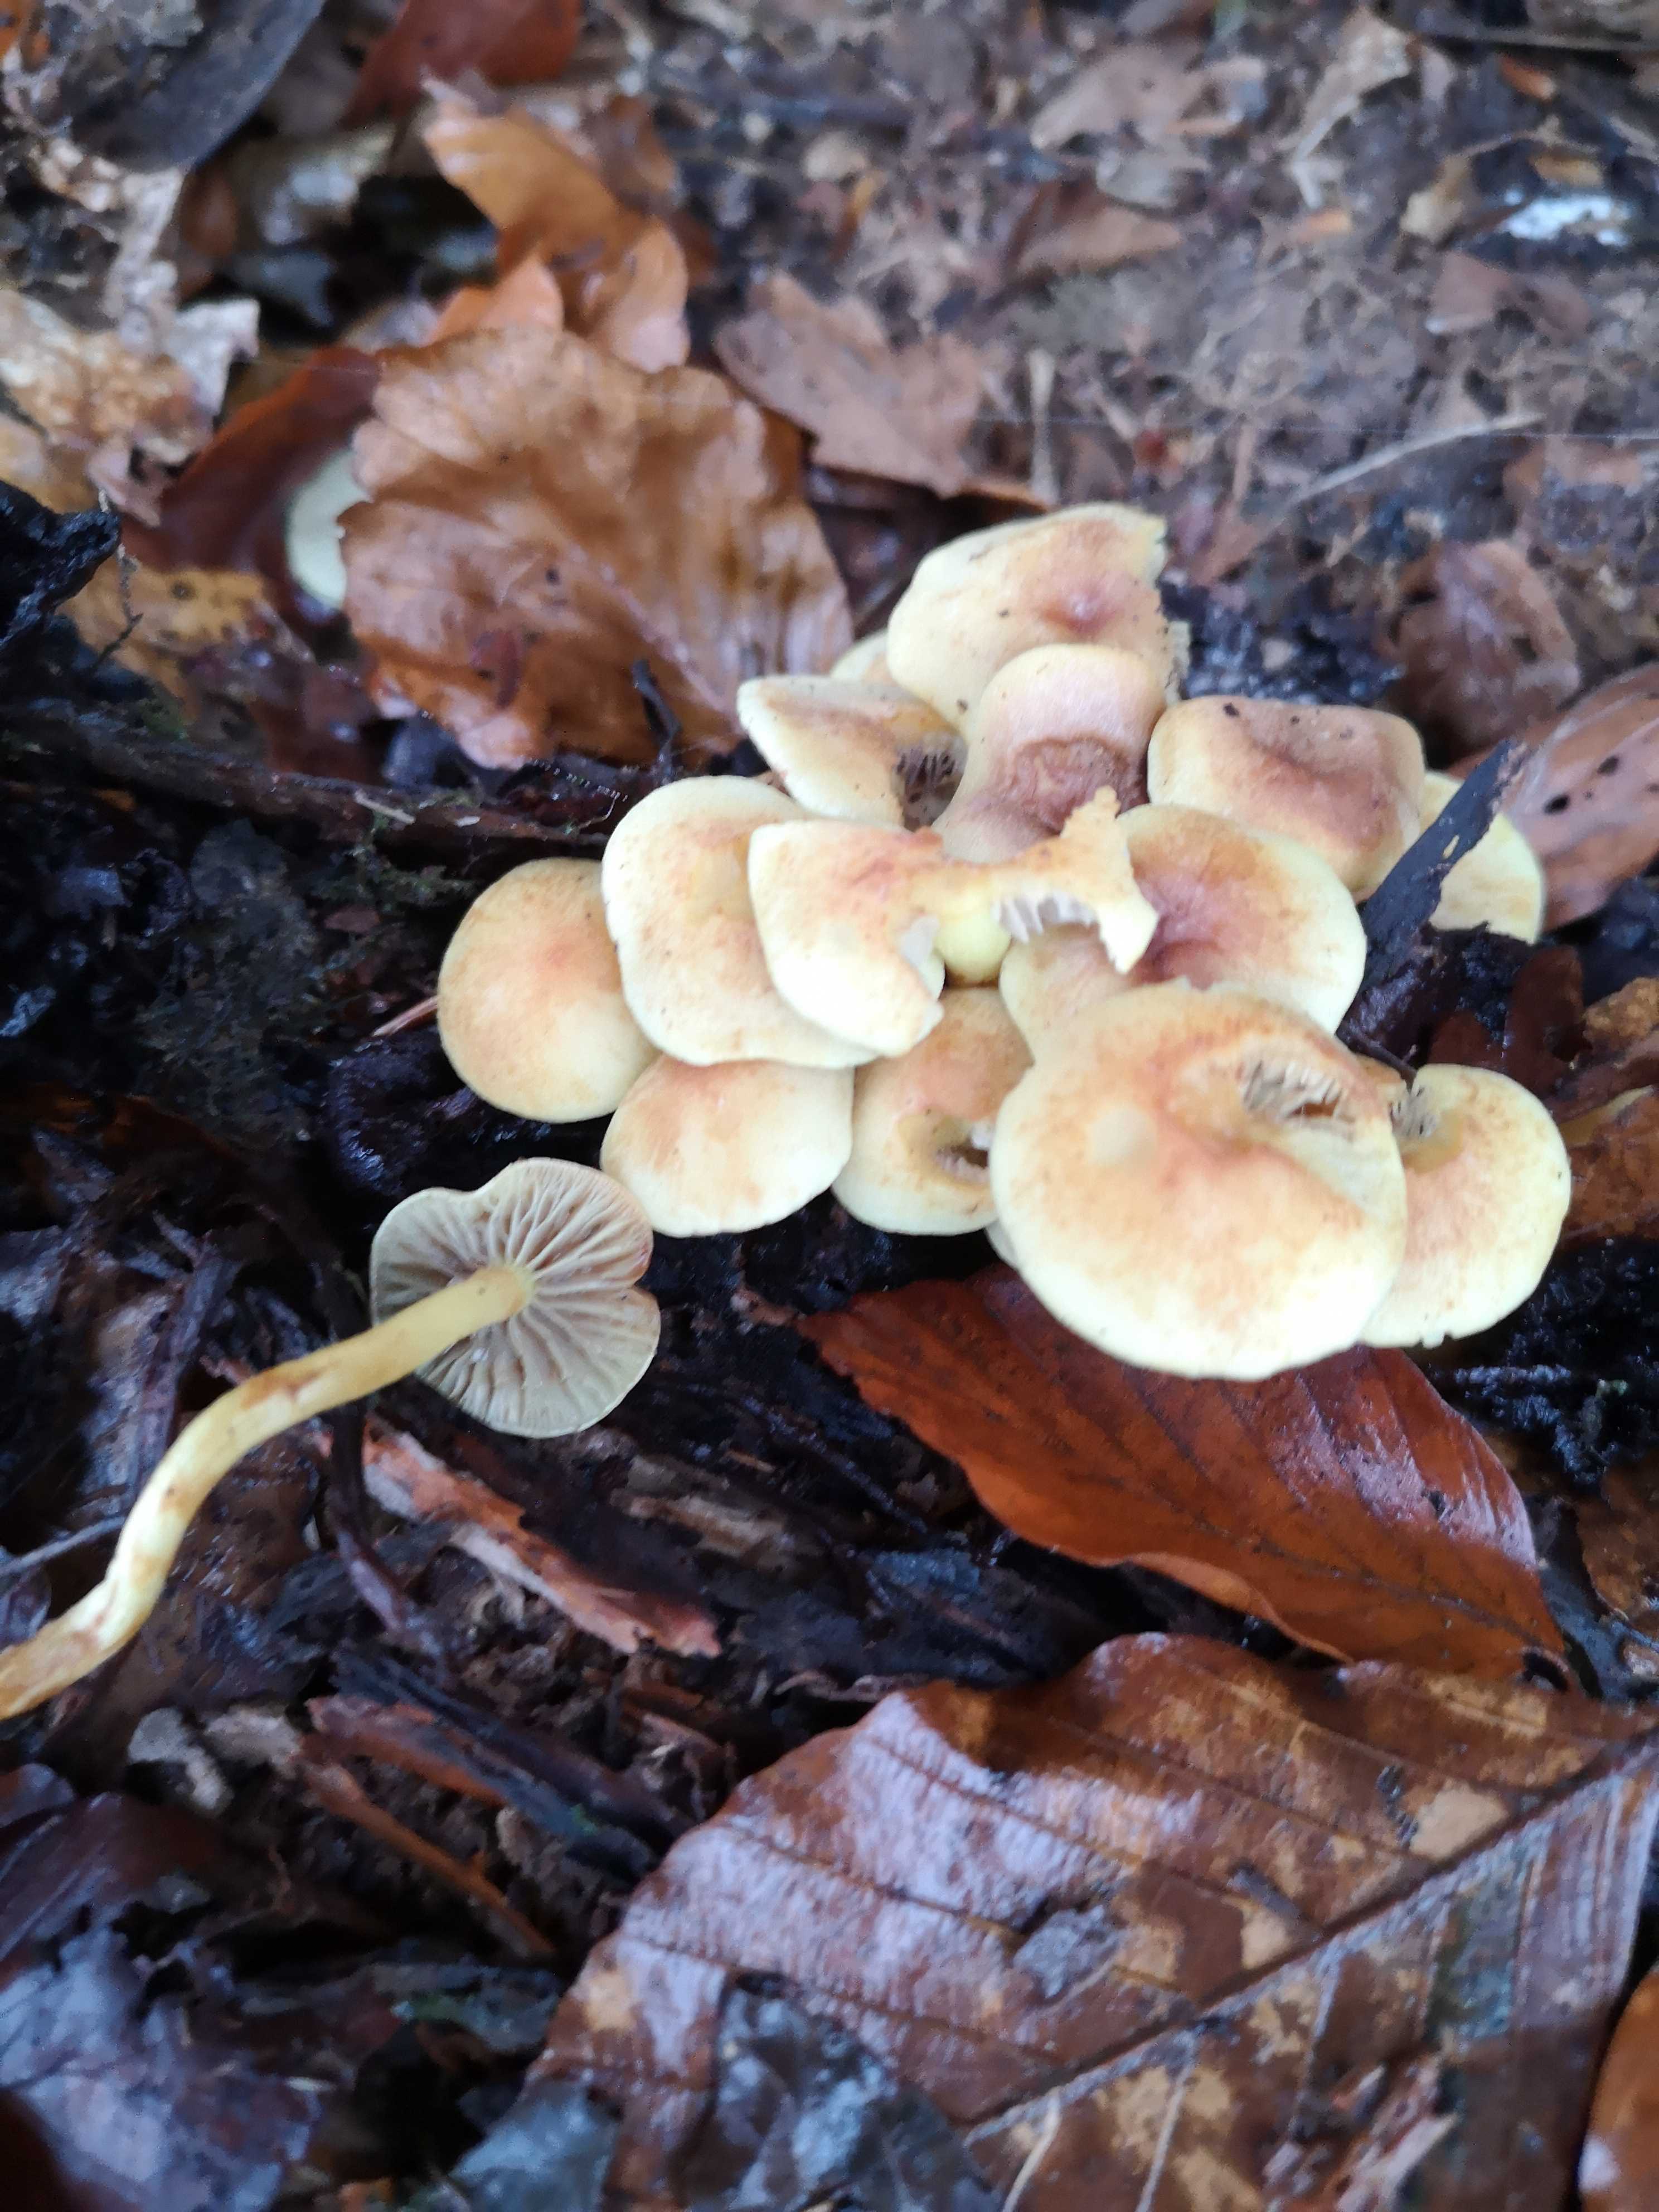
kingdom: Fungi
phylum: Basidiomycota
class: Agaricomycetes
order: Agaricales
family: Strophariaceae
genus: Hypholoma
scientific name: Hypholoma fasciculare
